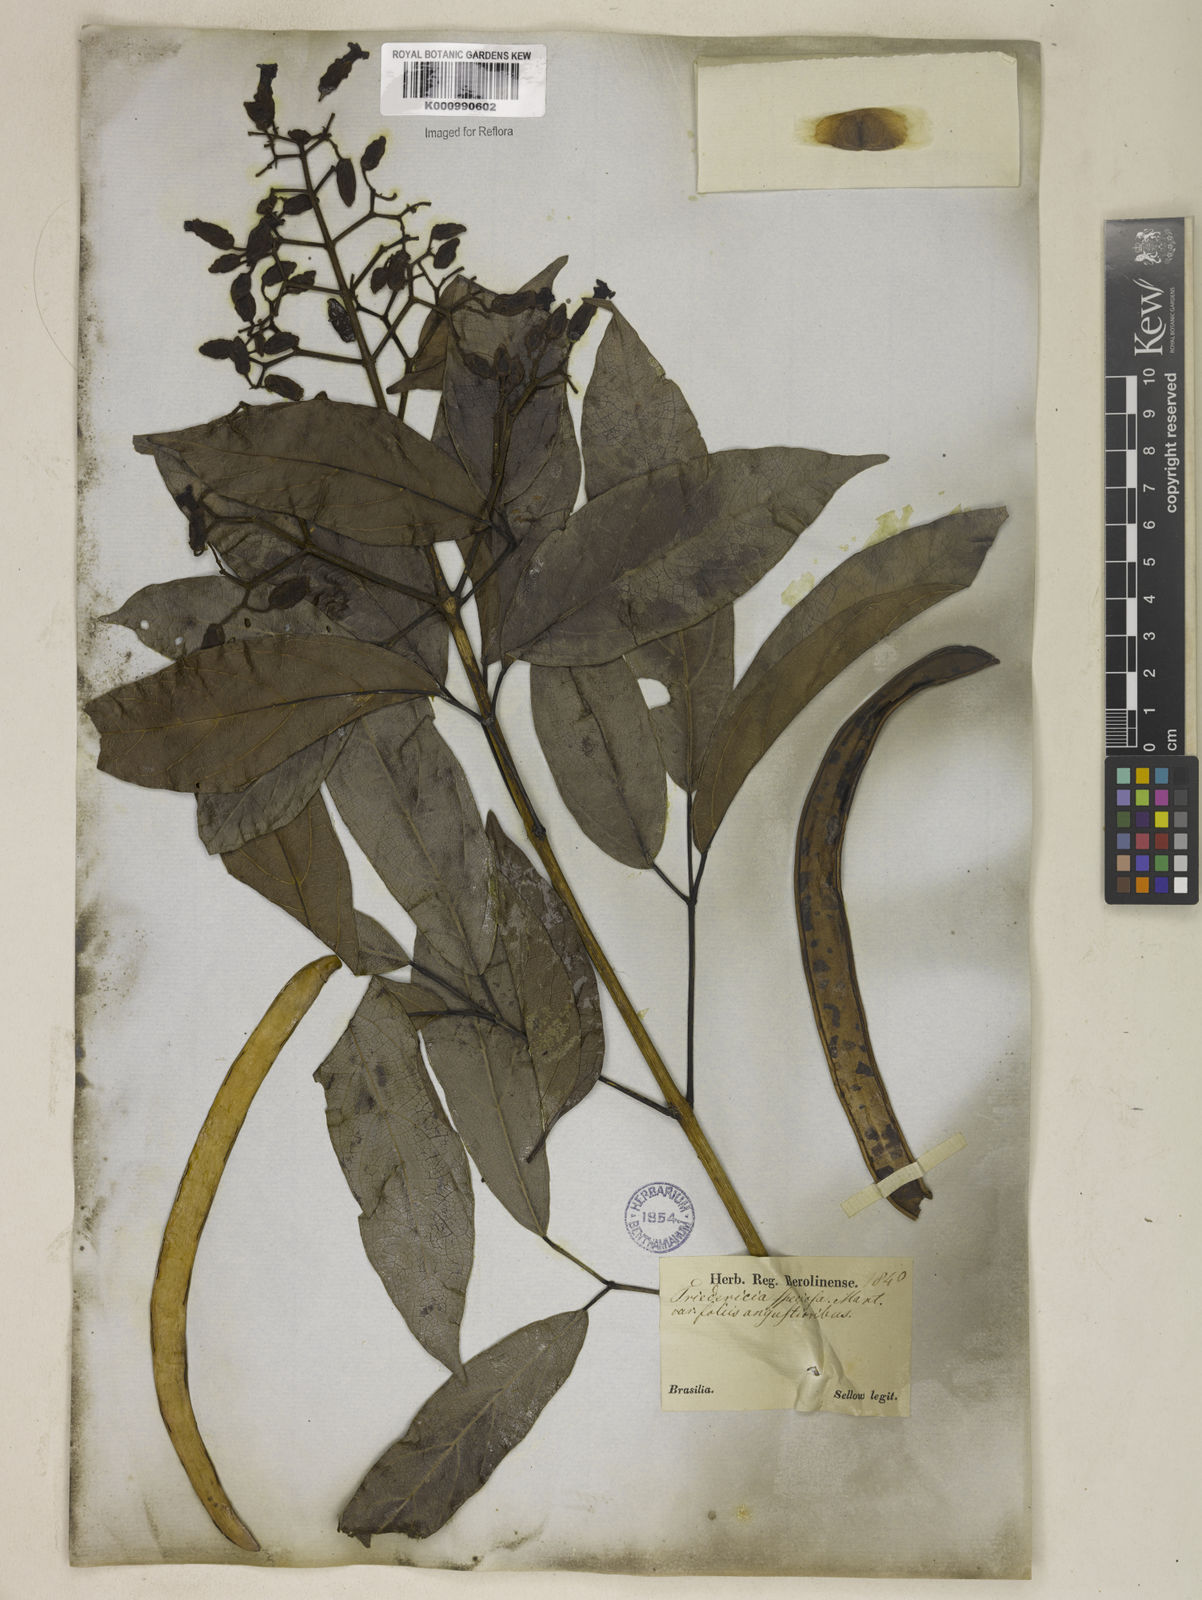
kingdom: Plantae
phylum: Tracheophyta
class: Magnoliopsida
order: Lamiales
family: Bignoniaceae
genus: Fridericia
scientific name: Fridericia speciosa
